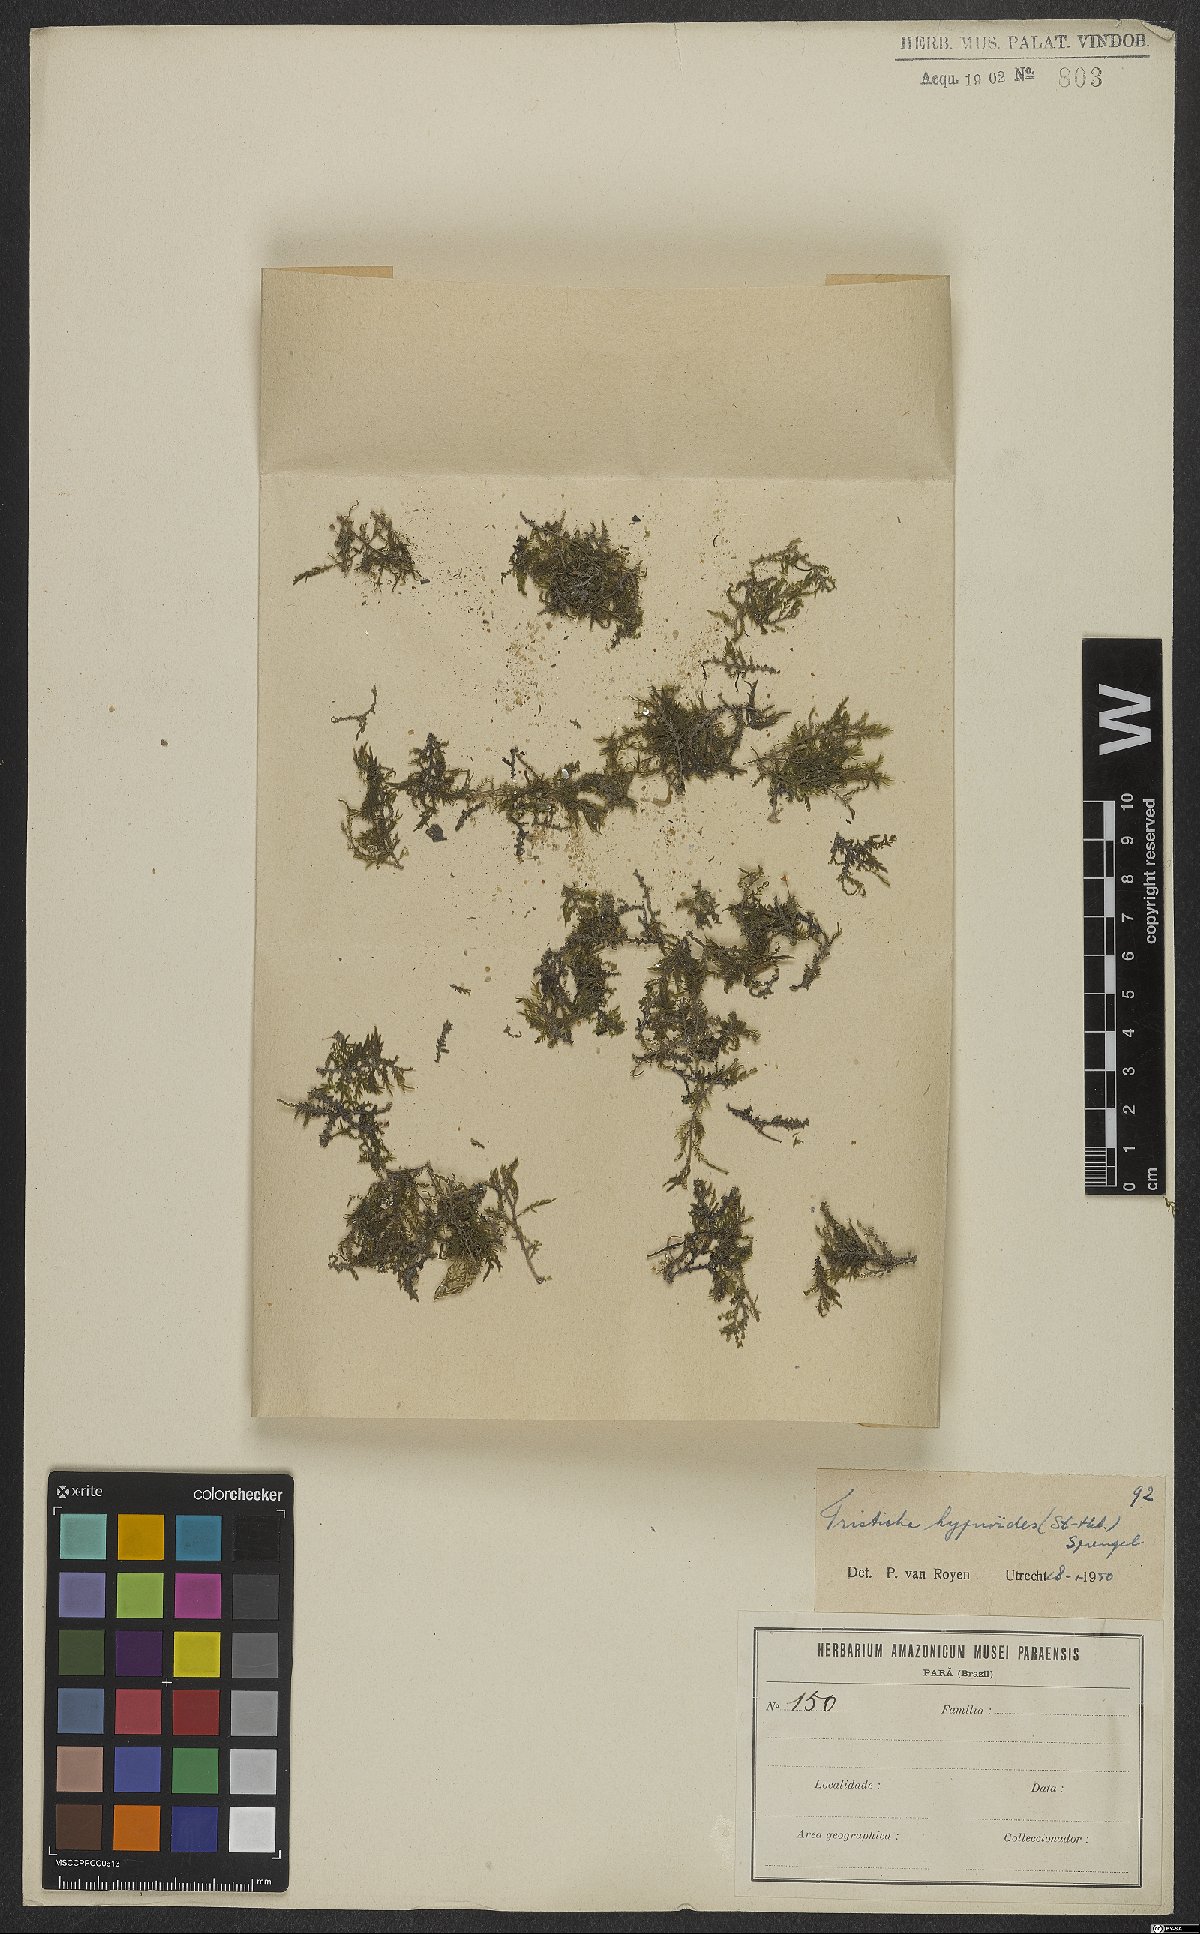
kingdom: Plantae
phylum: Tracheophyta
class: Magnoliopsida
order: Malpighiales
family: Podostemaceae
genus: Tristicha
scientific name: Tristicha trifaria
